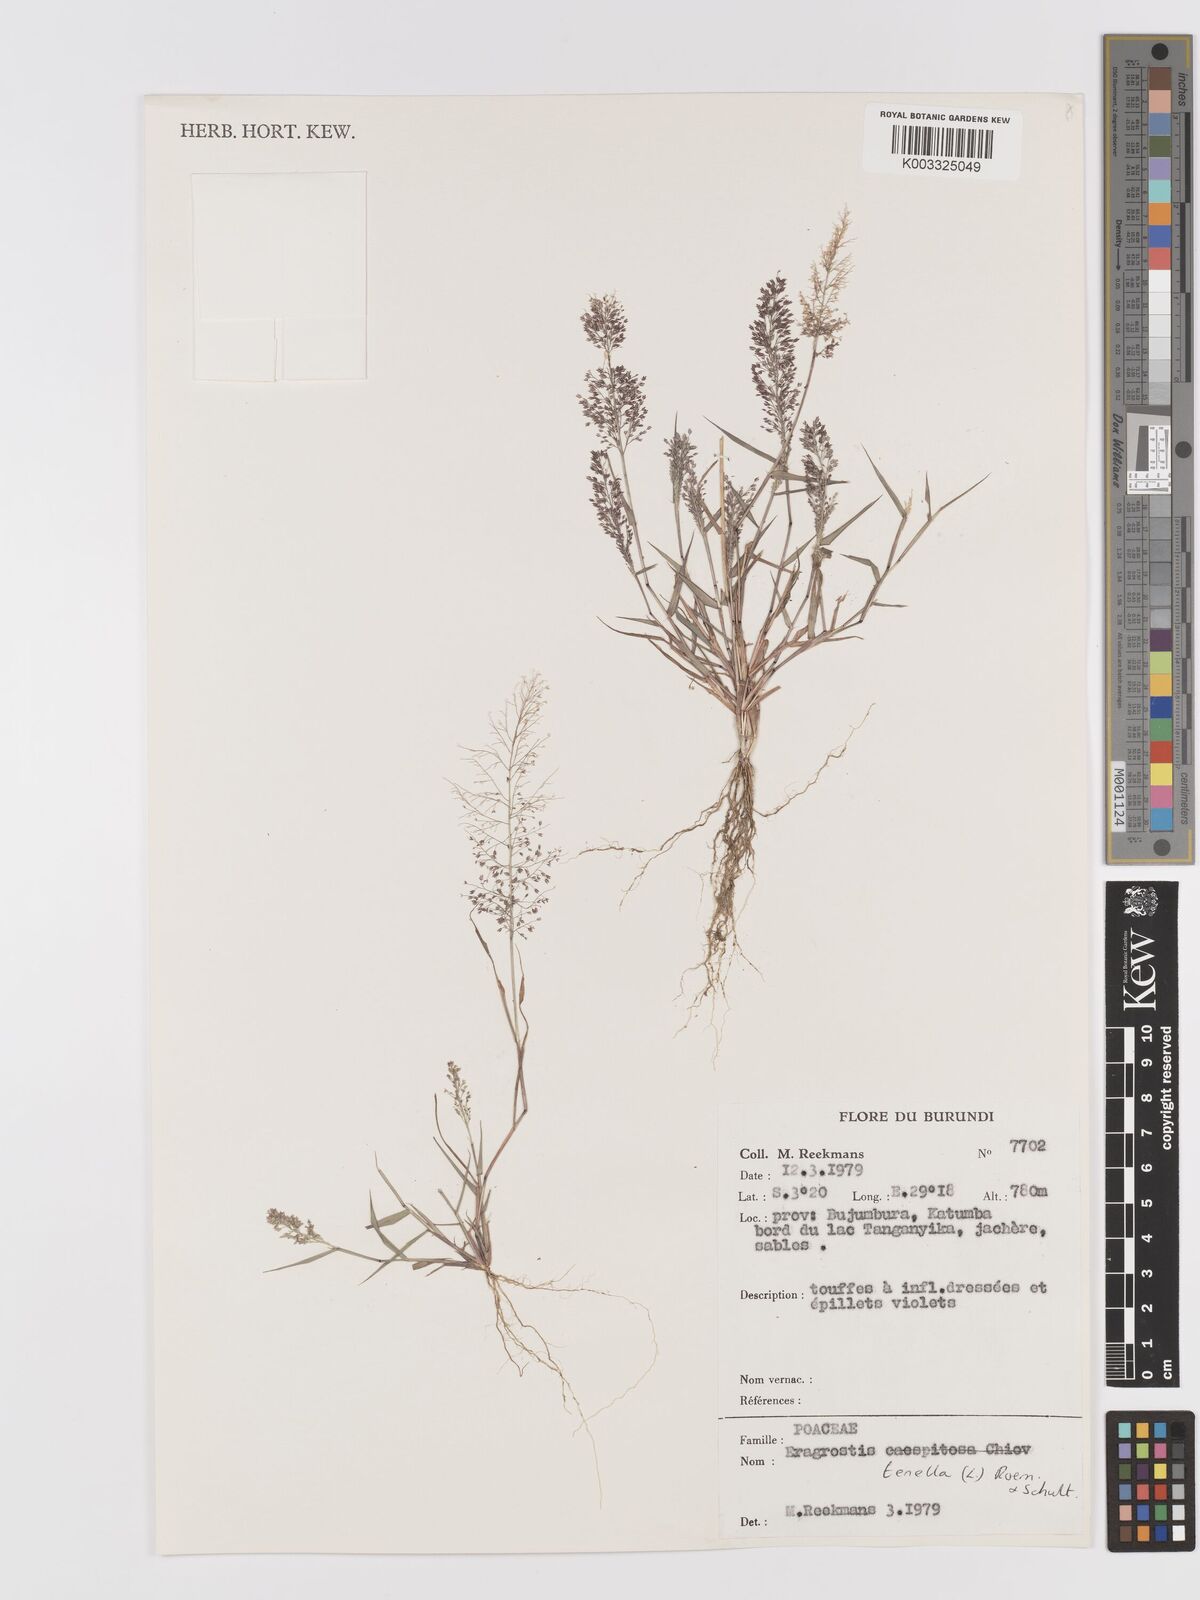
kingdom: Plantae
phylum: Tracheophyta
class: Liliopsida
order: Poales
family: Poaceae
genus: Eragrostis
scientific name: Eragrostis tenella
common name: Japanese lovegrass
